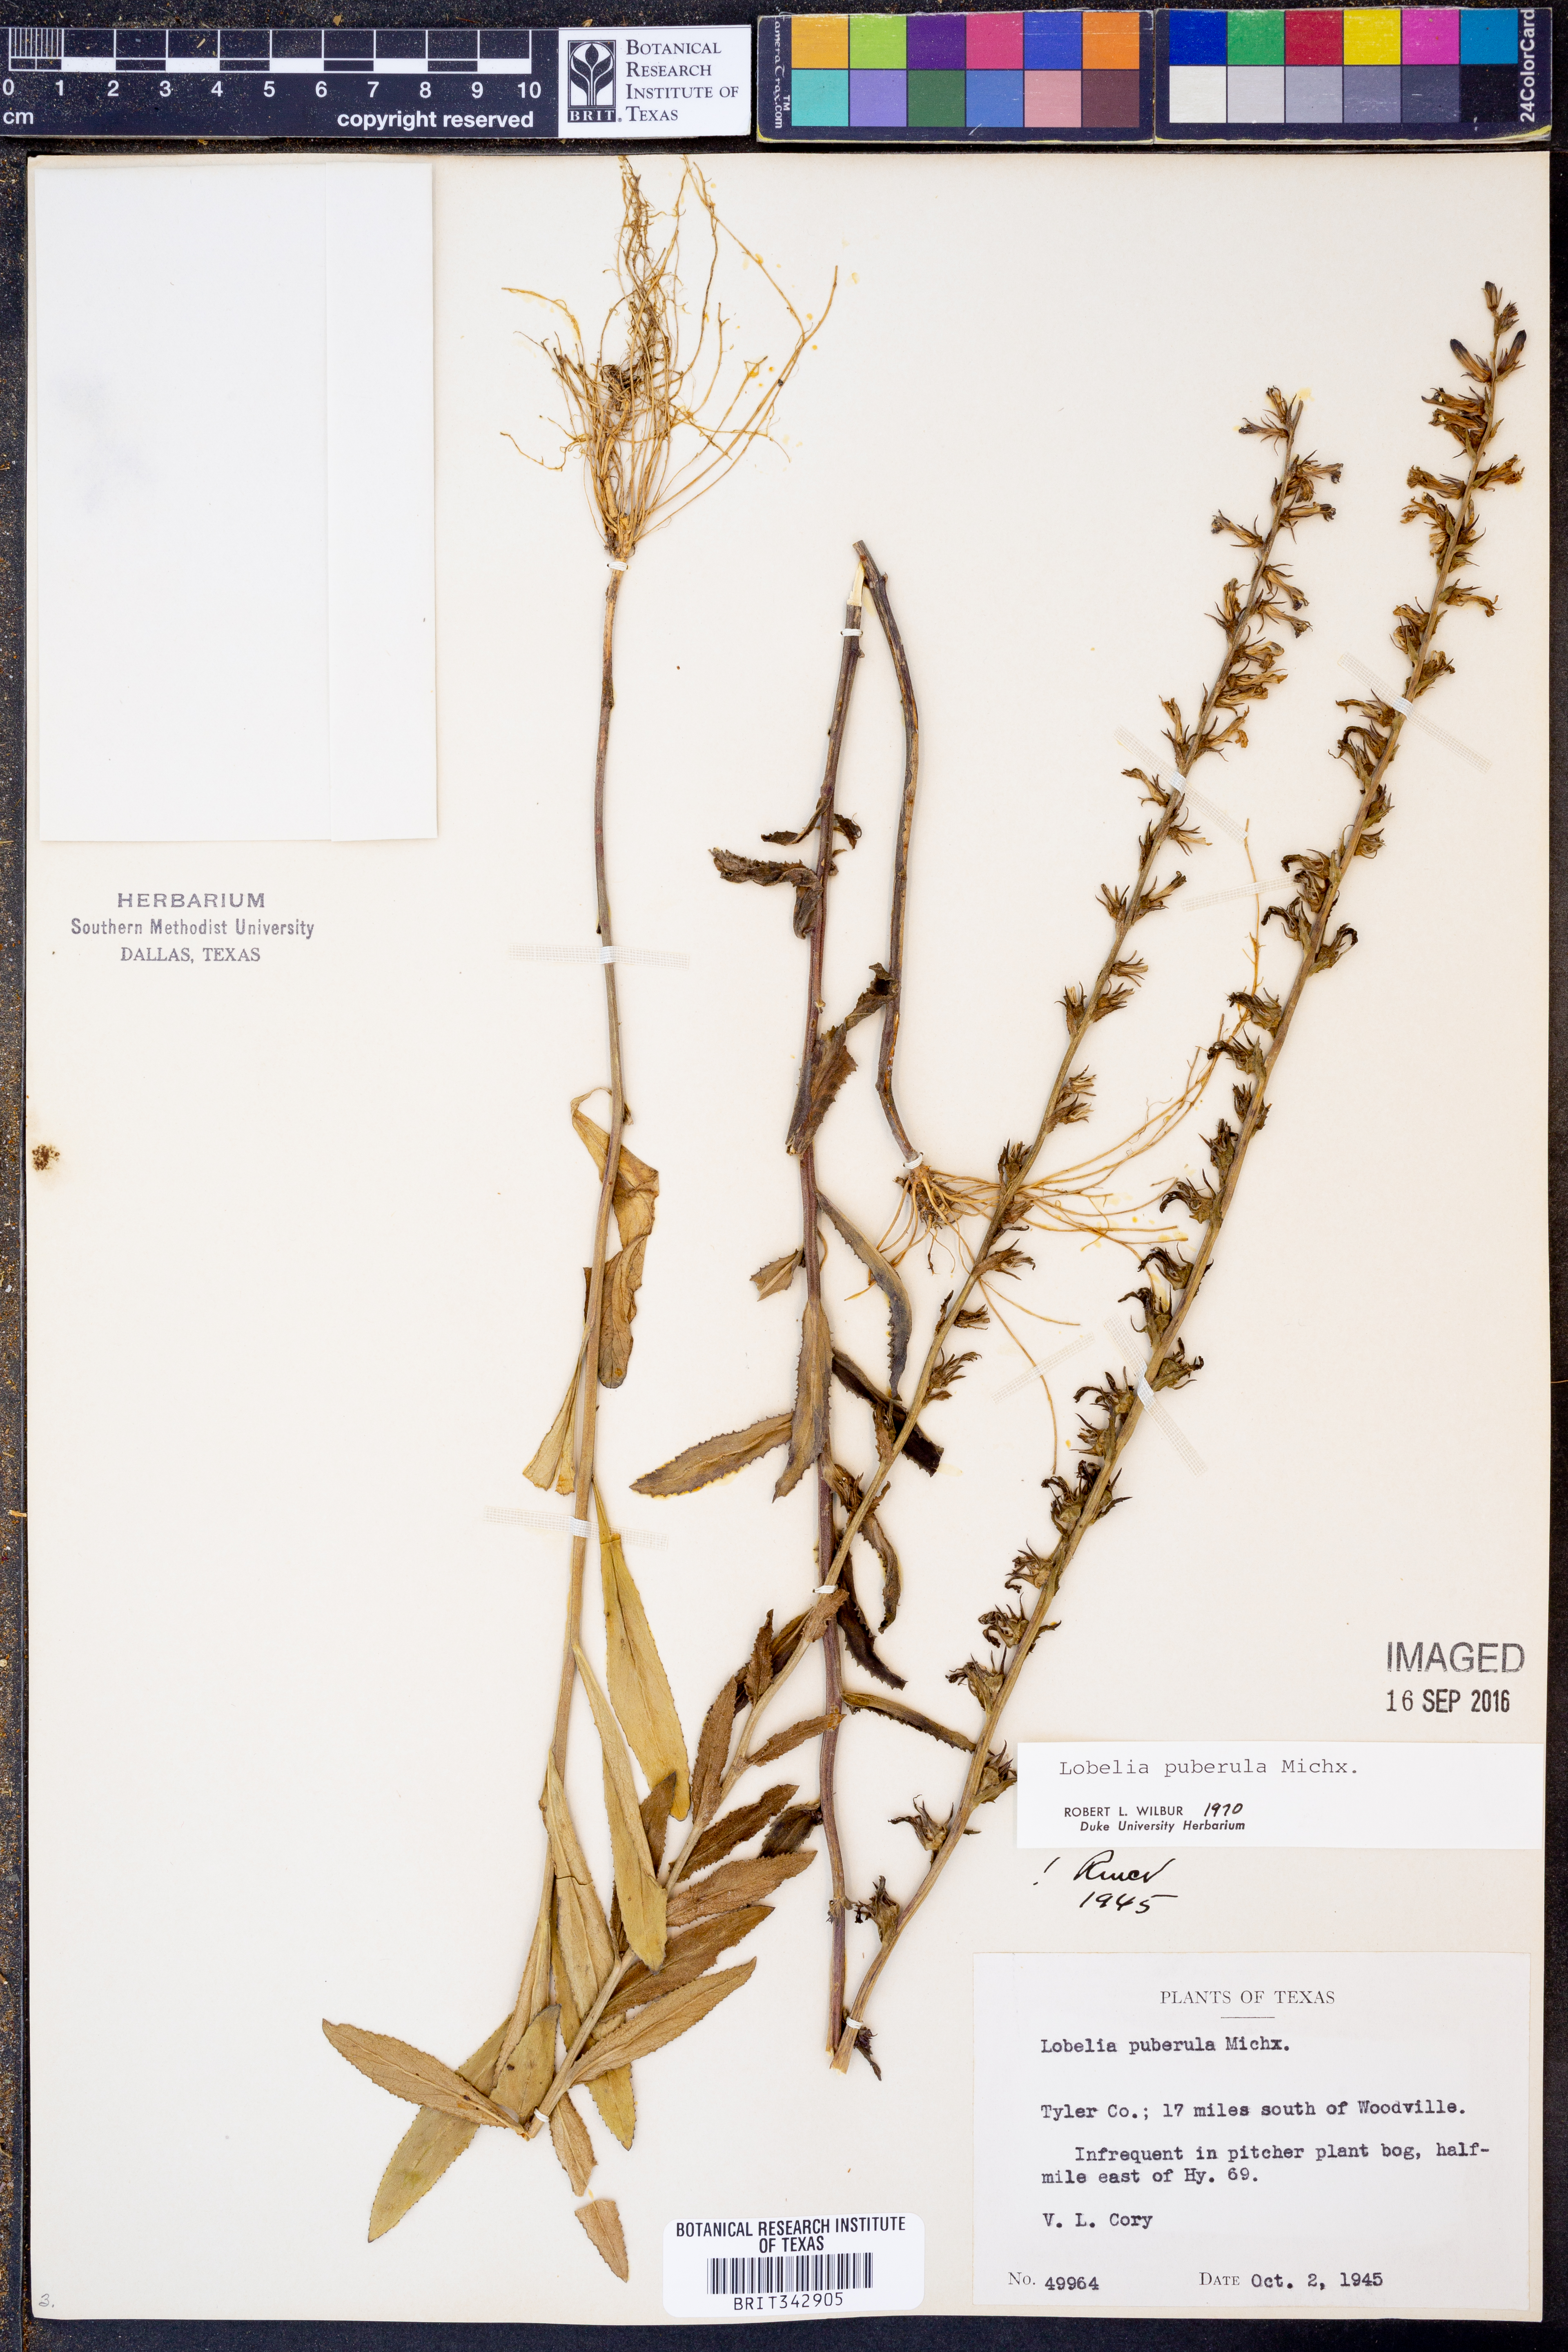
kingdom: Plantae
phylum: Tracheophyta
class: Magnoliopsida
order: Asterales
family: Campanulaceae
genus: Lobelia
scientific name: Lobelia puberula
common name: Purple dewdrop
